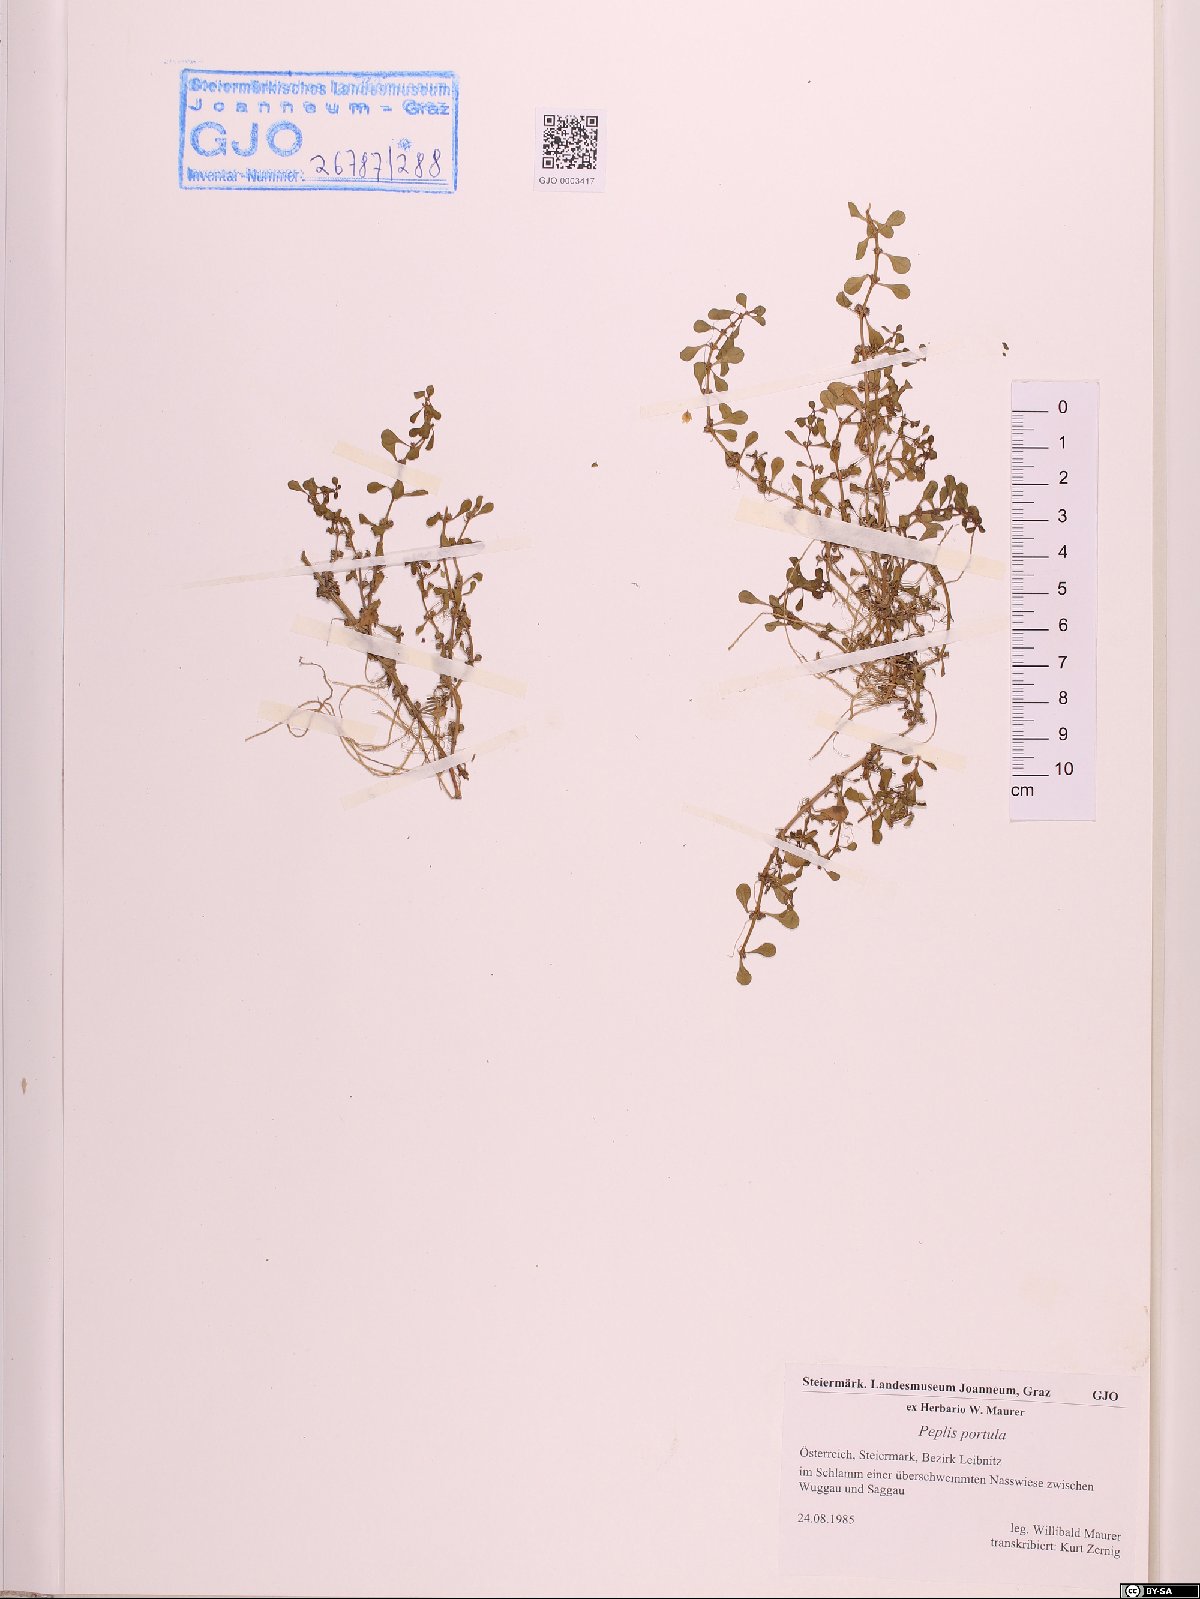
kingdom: Plantae
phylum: Tracheophyta
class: Magnoliopsida
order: Myrtales
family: Lythraceae
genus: Lythrum
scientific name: Lythrum portula
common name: Water purslane
